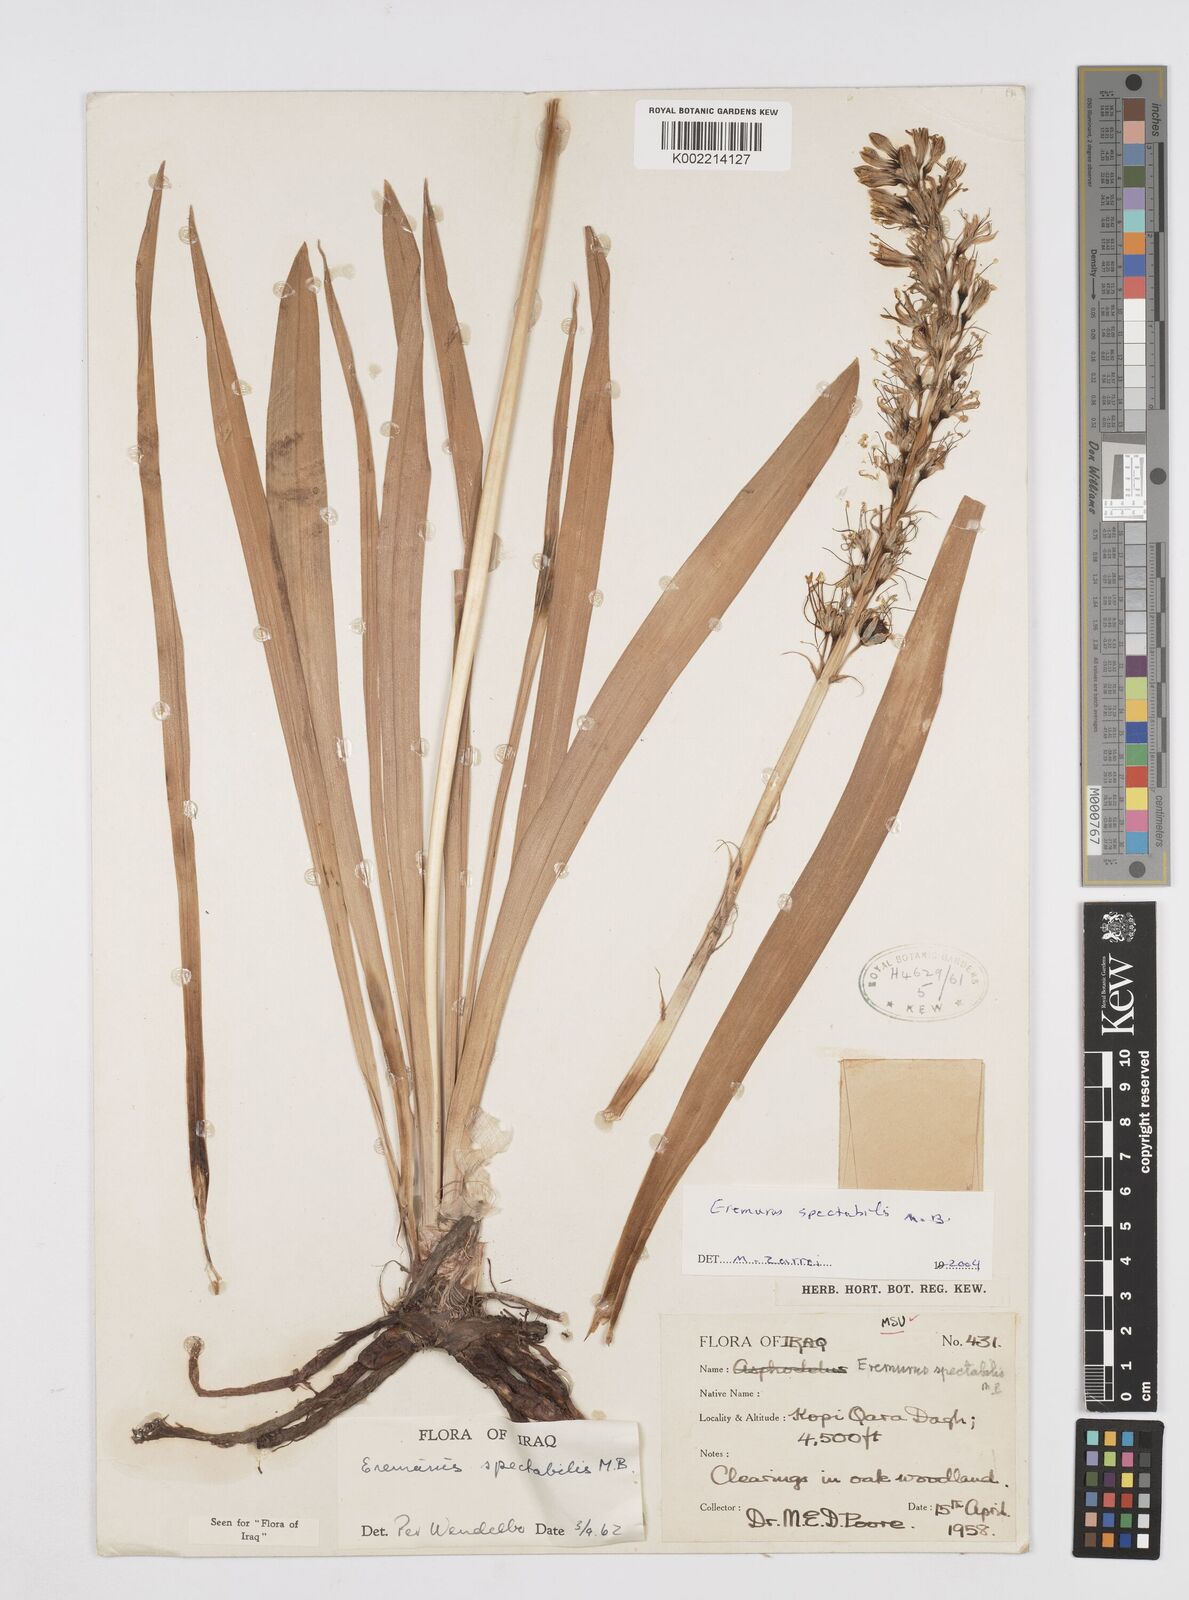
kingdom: Plantae
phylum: Tracheophyta
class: Liliopsida
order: Asparagales
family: Asphodelaceae
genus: Eremurus
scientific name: Eremurus spectabilis
